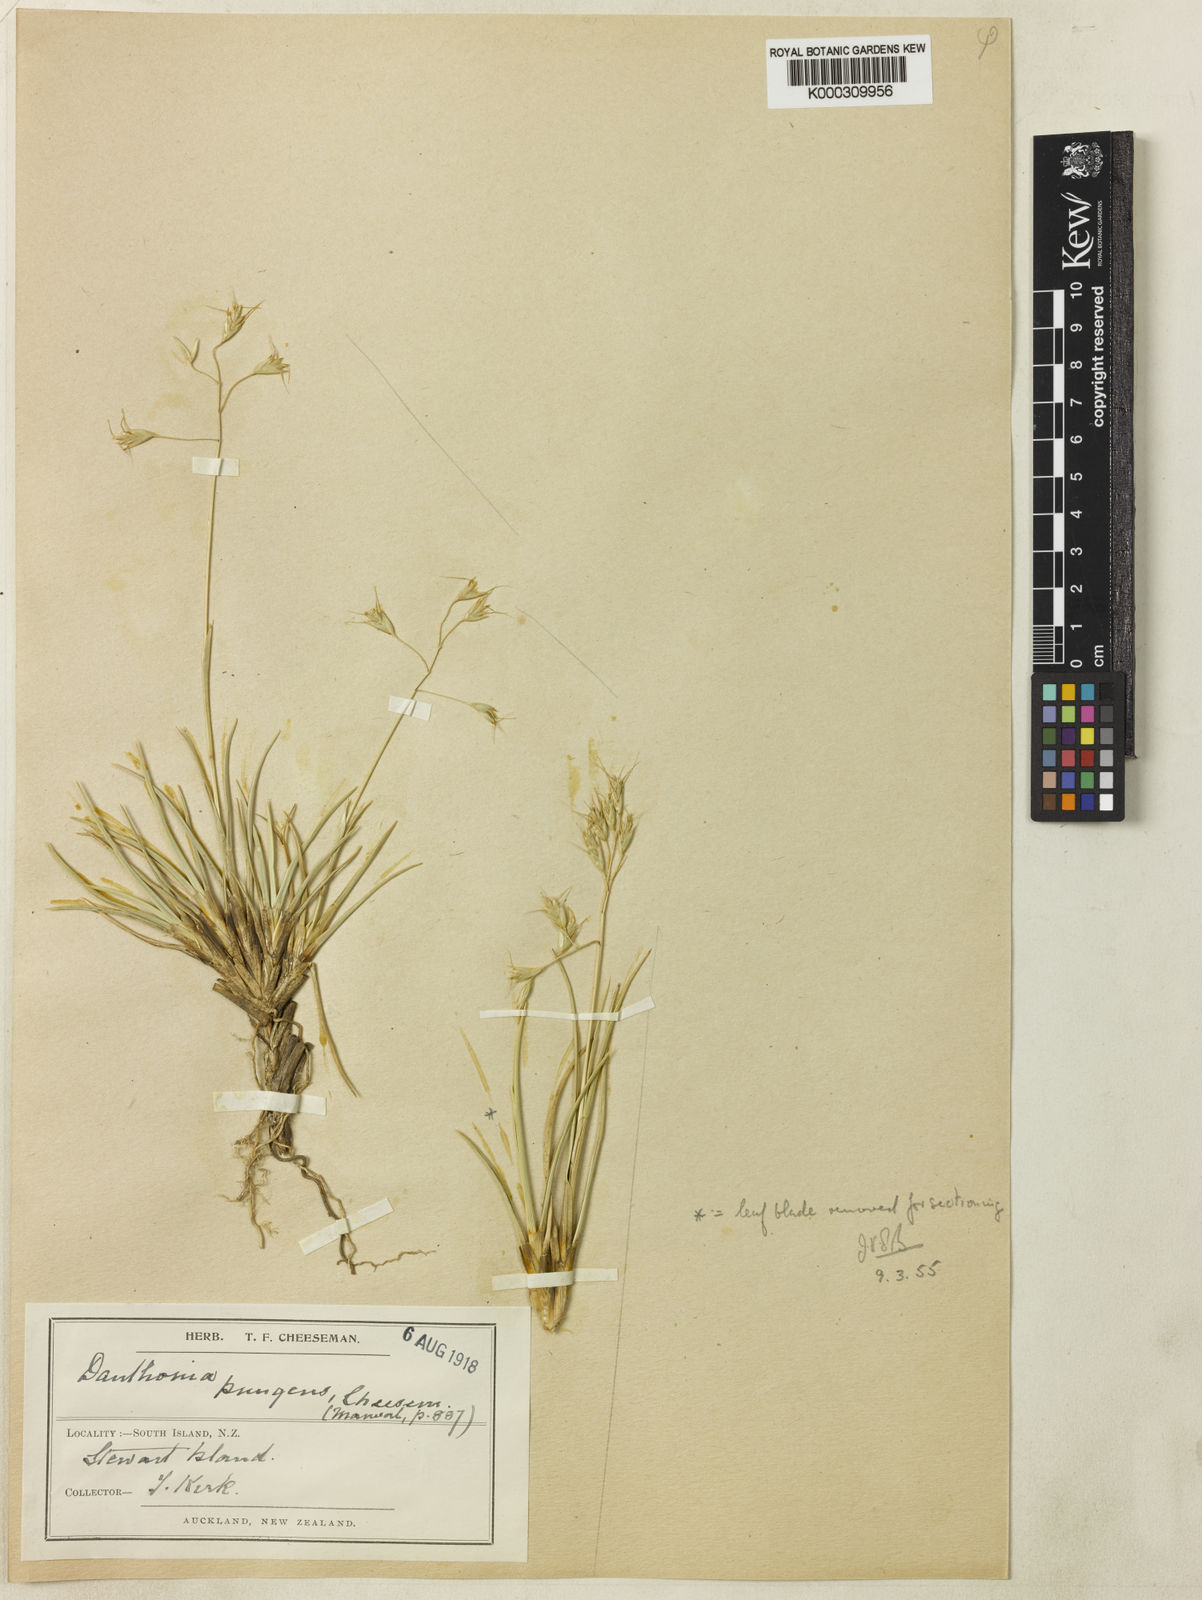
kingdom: Plantae
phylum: Tracheophyta
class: Liliopsida
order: Poales
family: Poaceae
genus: Chionochloa
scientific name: Chionochloa crassiuscula
